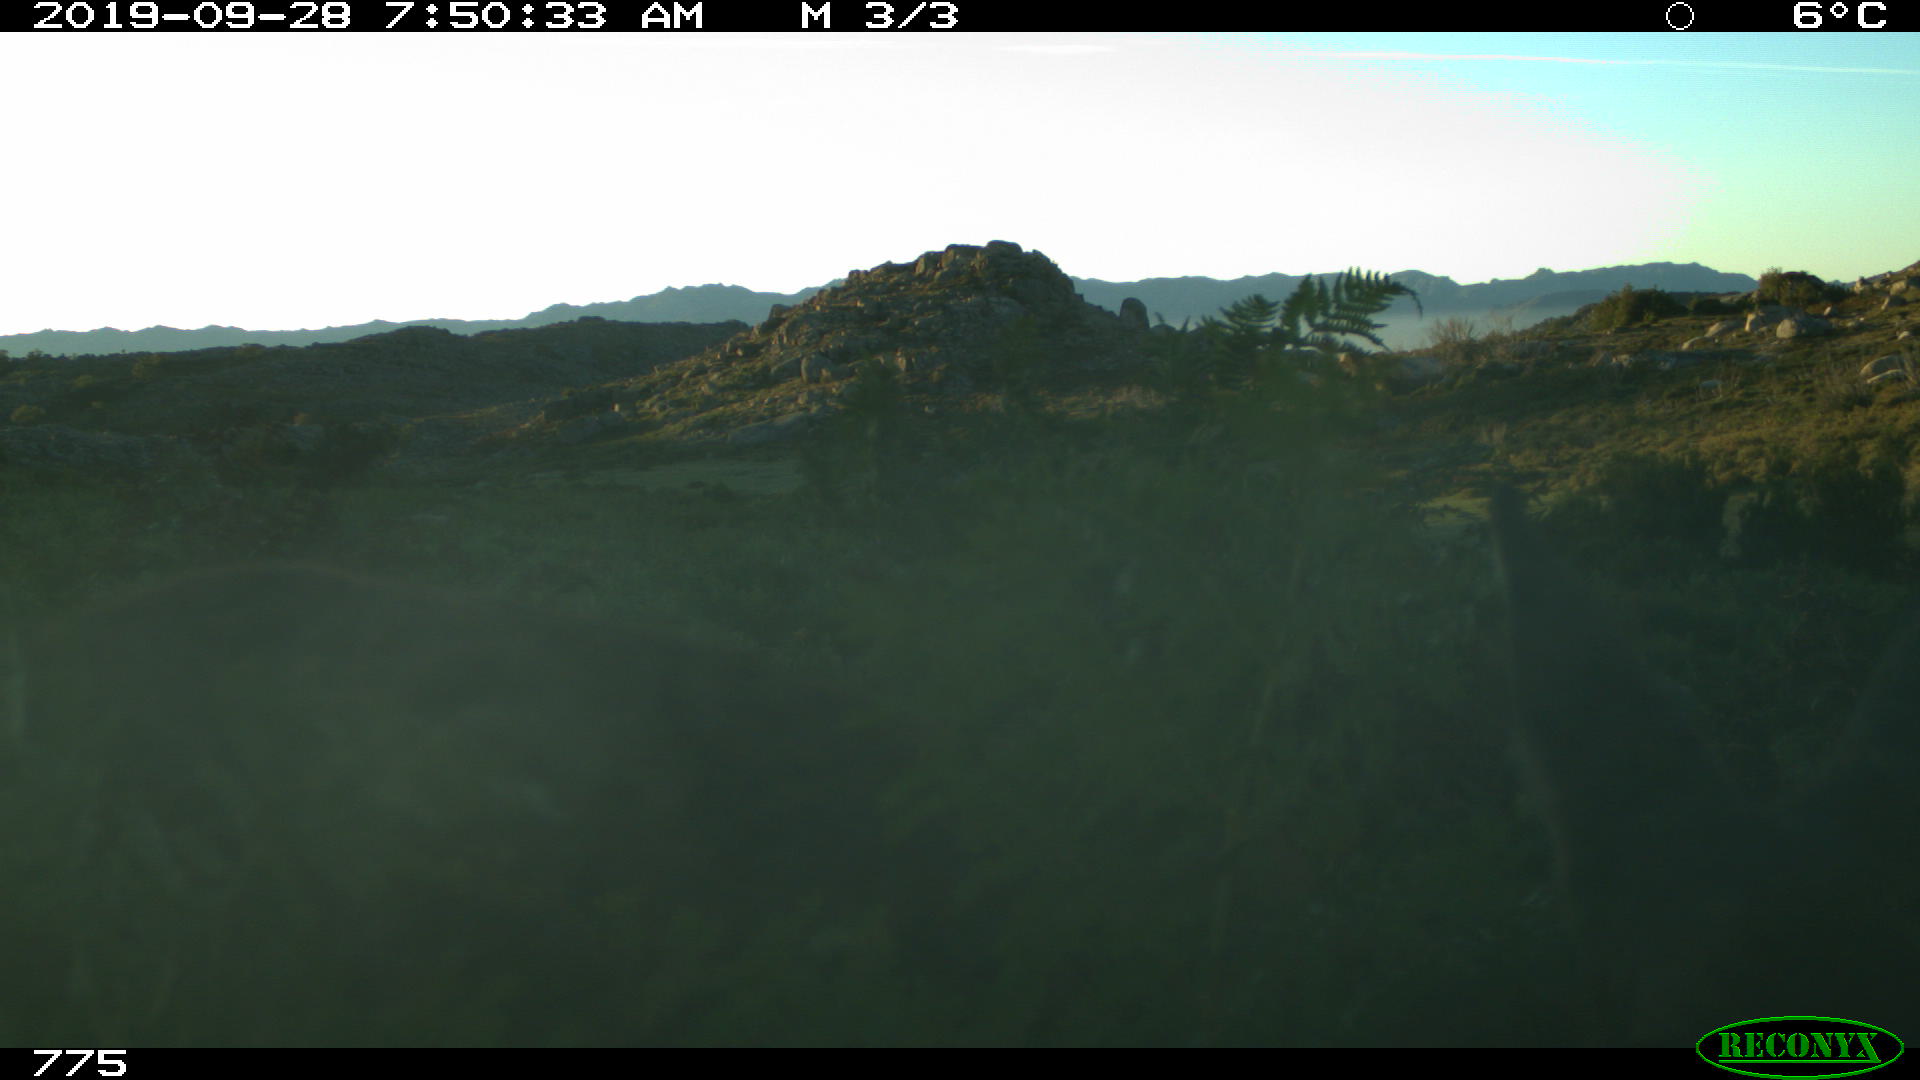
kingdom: Animalia
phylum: Chordata
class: Mammalia
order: Artiodactyla
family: Cervidae
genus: Capreolus
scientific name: Capreolus capreolus
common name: Western roe deer
